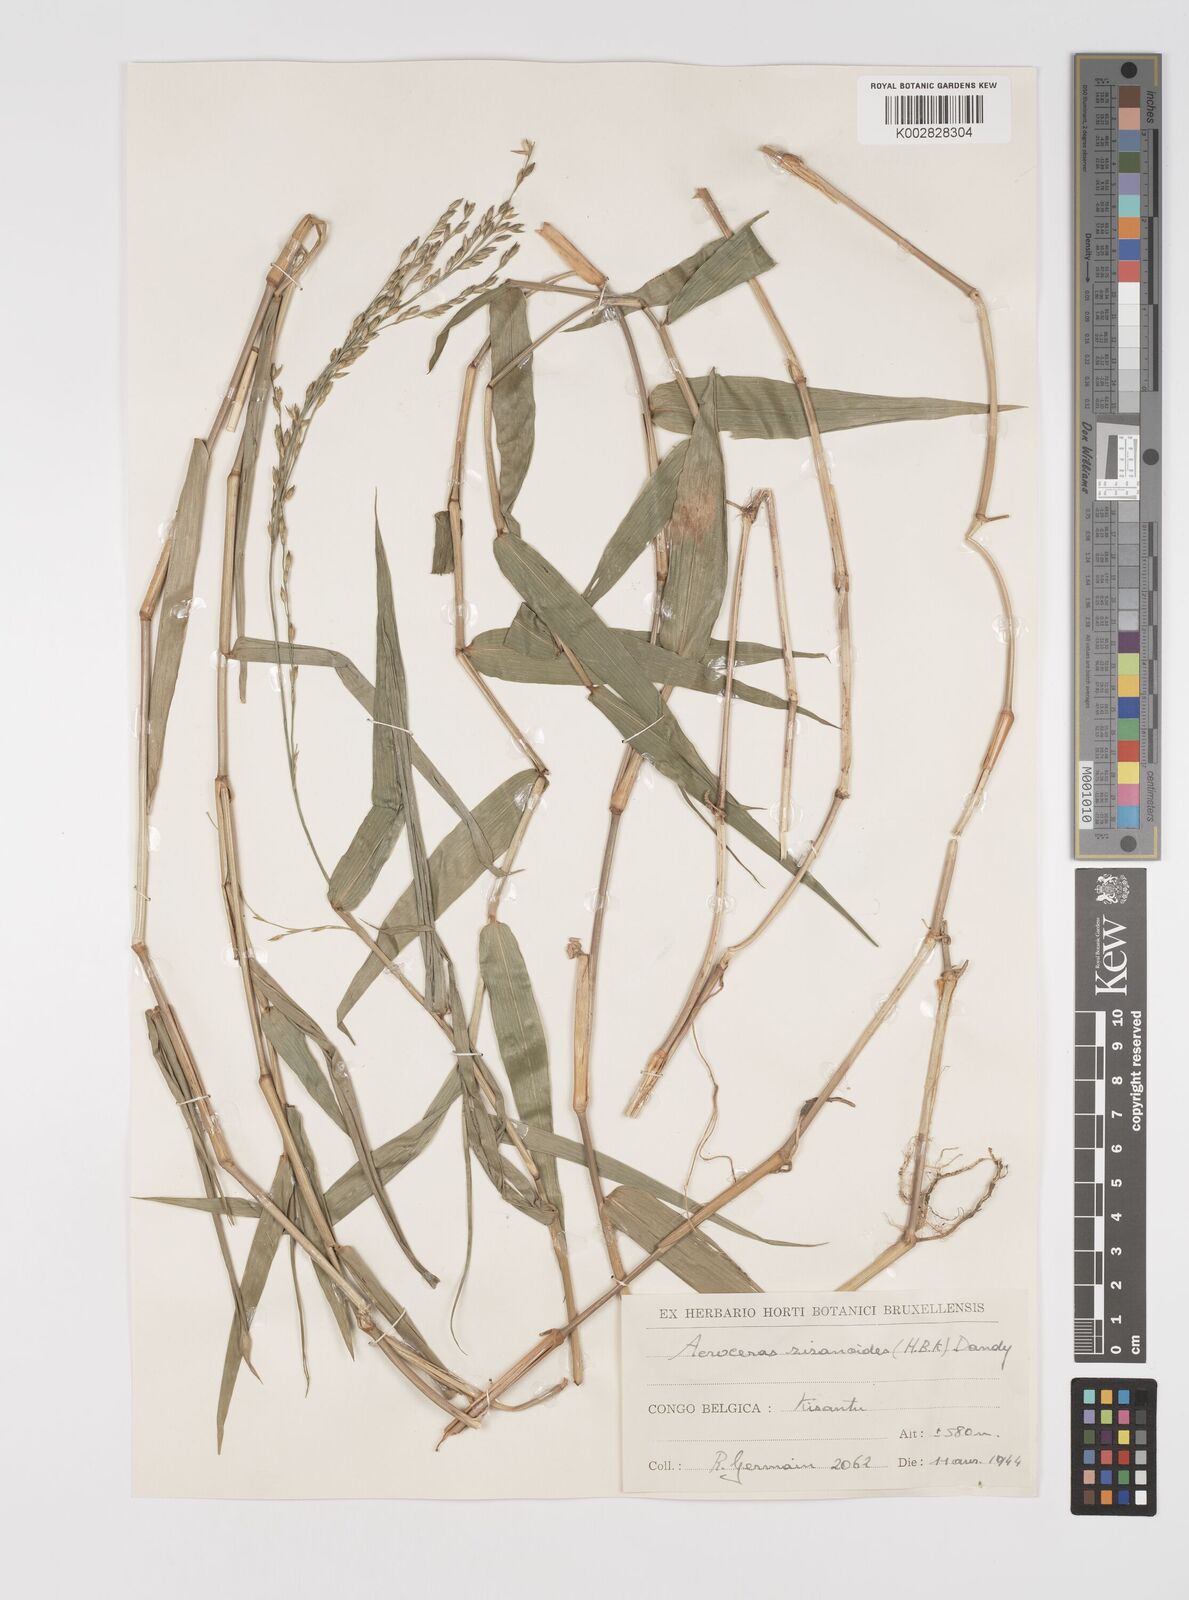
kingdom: Plantae
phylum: Tracheophyta
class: Liliopsida
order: Poales
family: Poaceae
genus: Acroceras
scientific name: Acroceras zizanioides
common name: Oat grass
